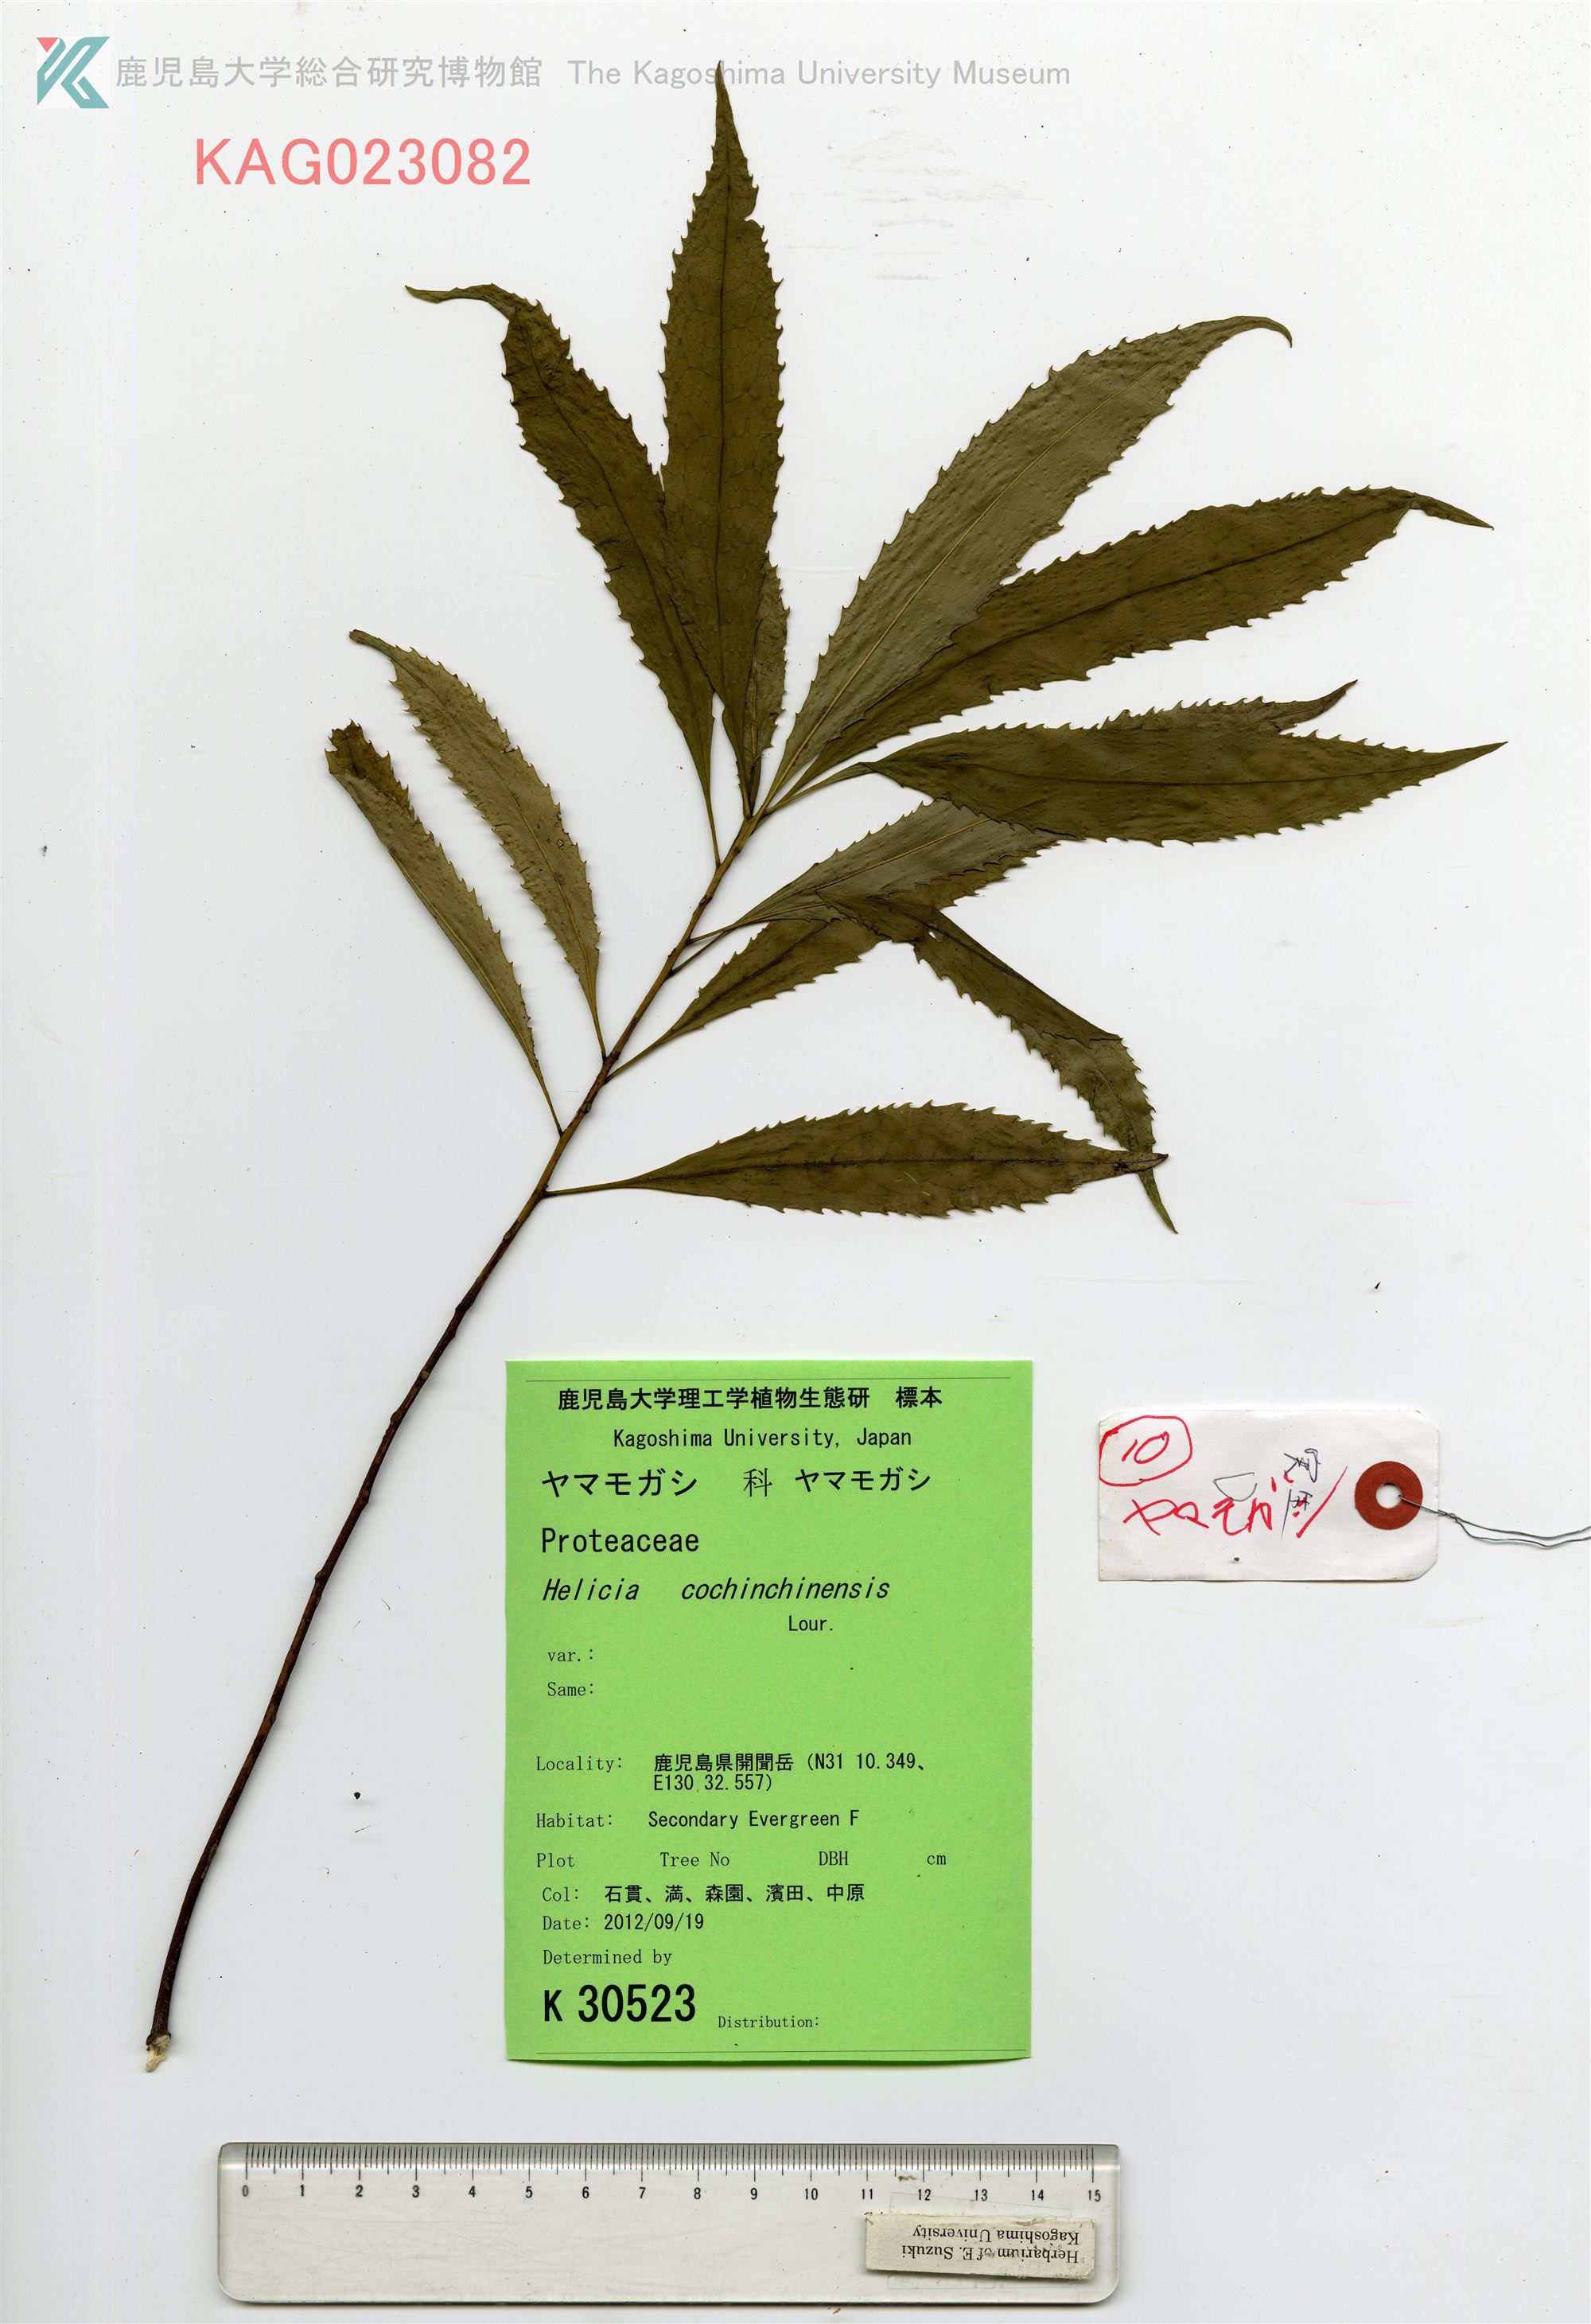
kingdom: Plantae
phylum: Tracheophyta
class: Magnoliopsida
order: Proteales
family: Proteaceae
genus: Helicia
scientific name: Helicia cochinchinensis
